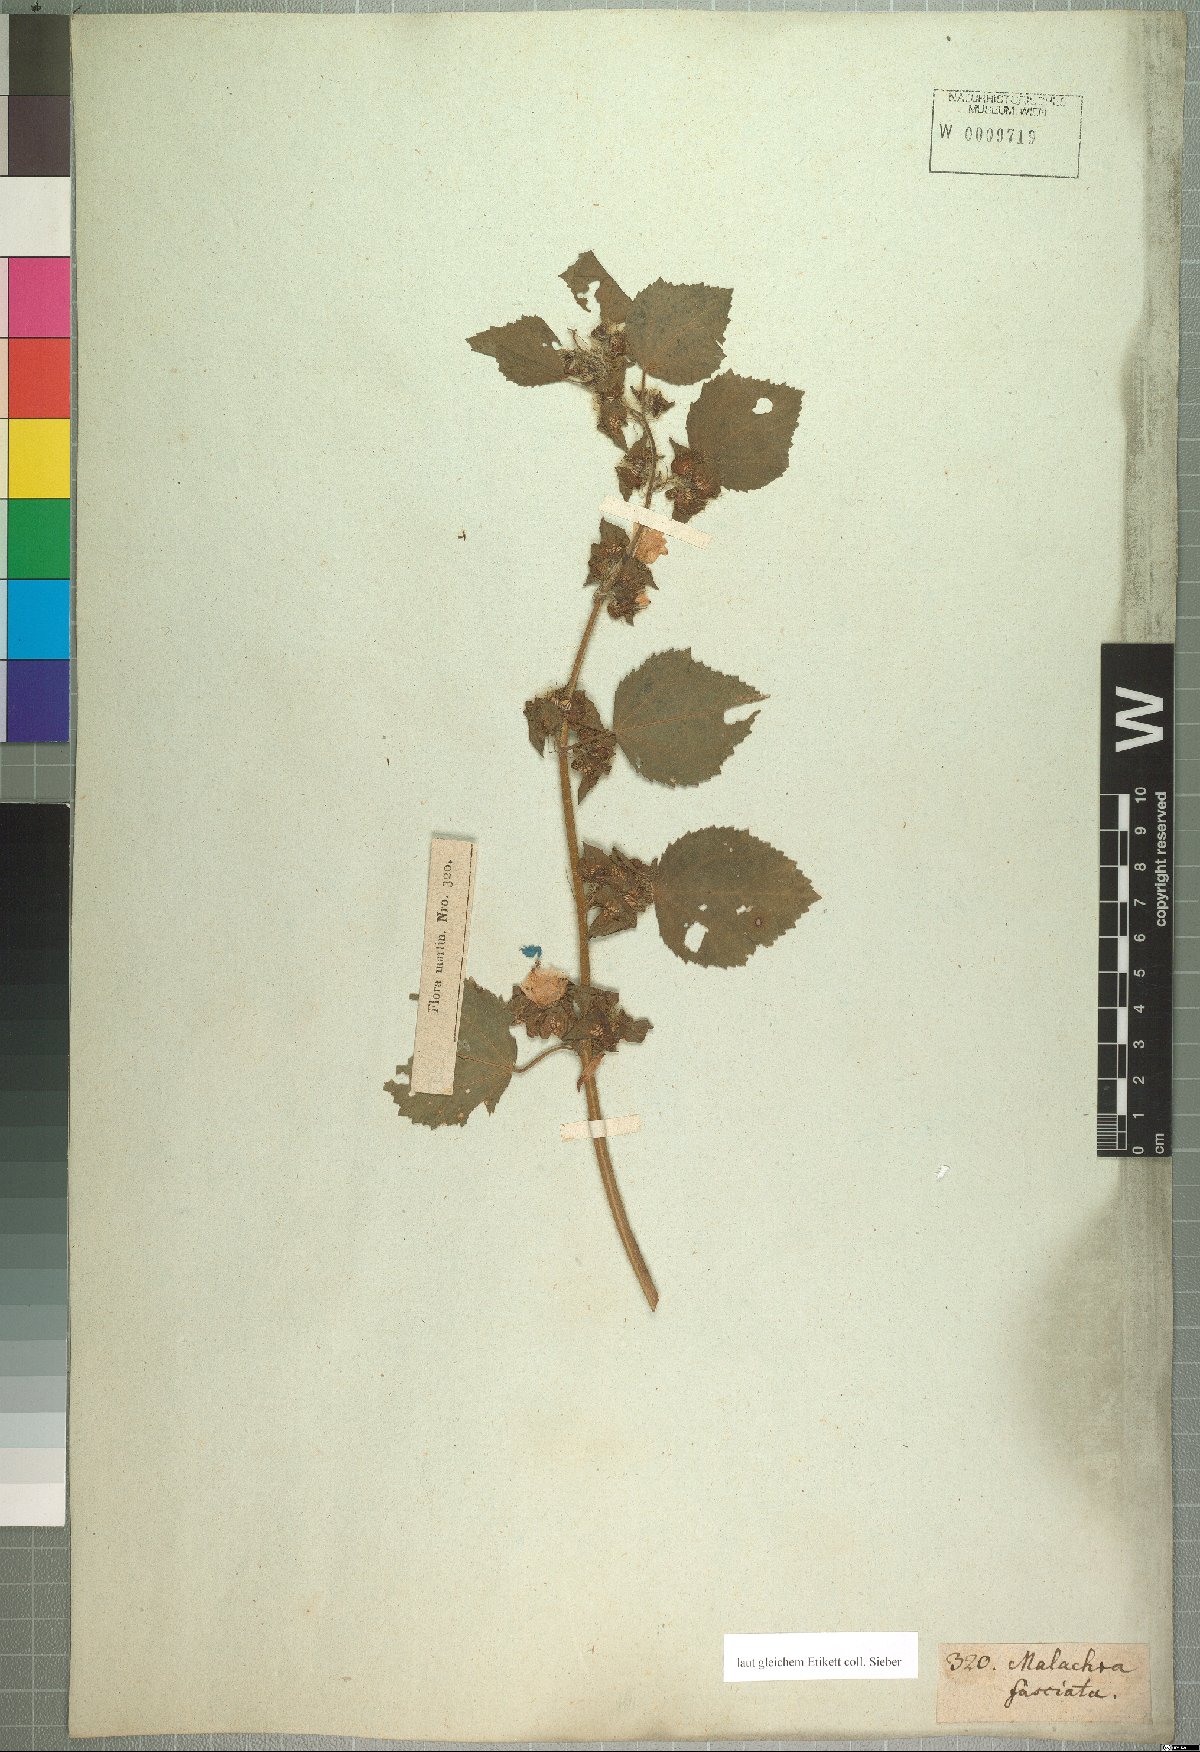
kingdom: Plantae
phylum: Tracheophyta
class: Magnoliopsida
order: Malvales
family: Malvaceae
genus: Malachra
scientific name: Malachra fasciata
